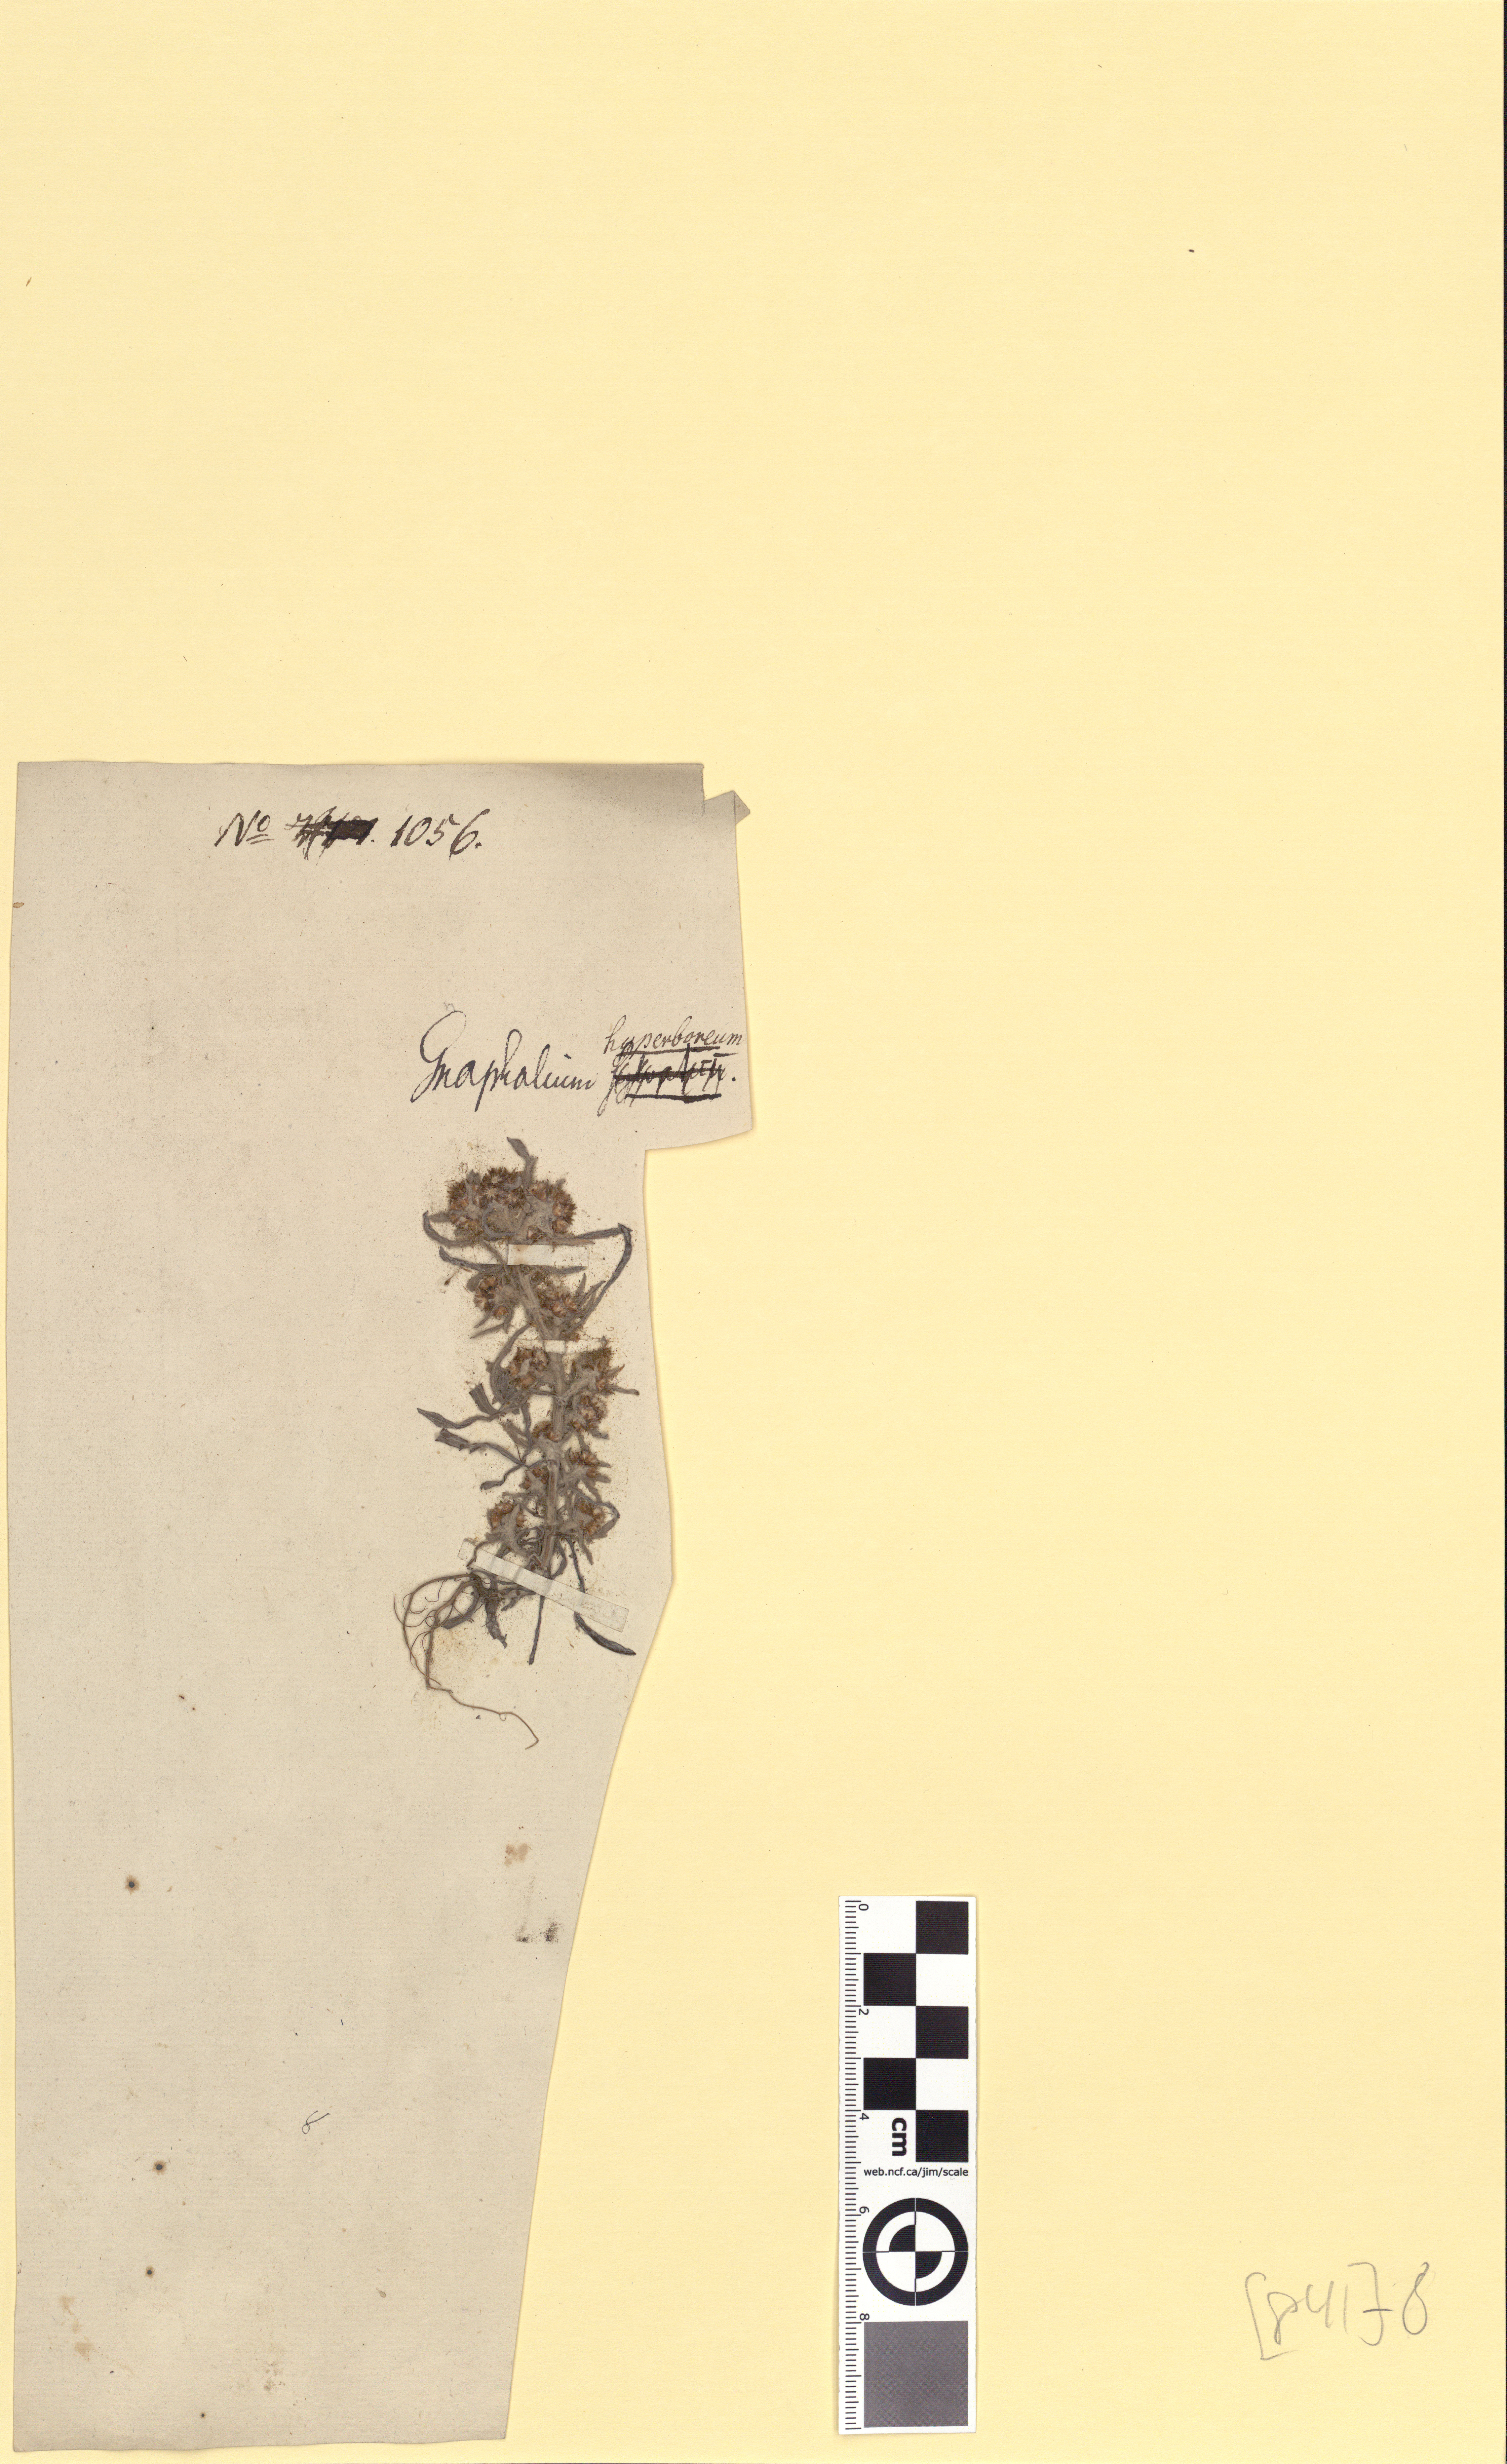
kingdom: Plantae
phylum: Tracheophyta
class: Magnoliopsida
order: Asterales
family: Asteraceae
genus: Gnaphalium
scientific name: Gnaphalium uliginosum
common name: Marsh cudweed
